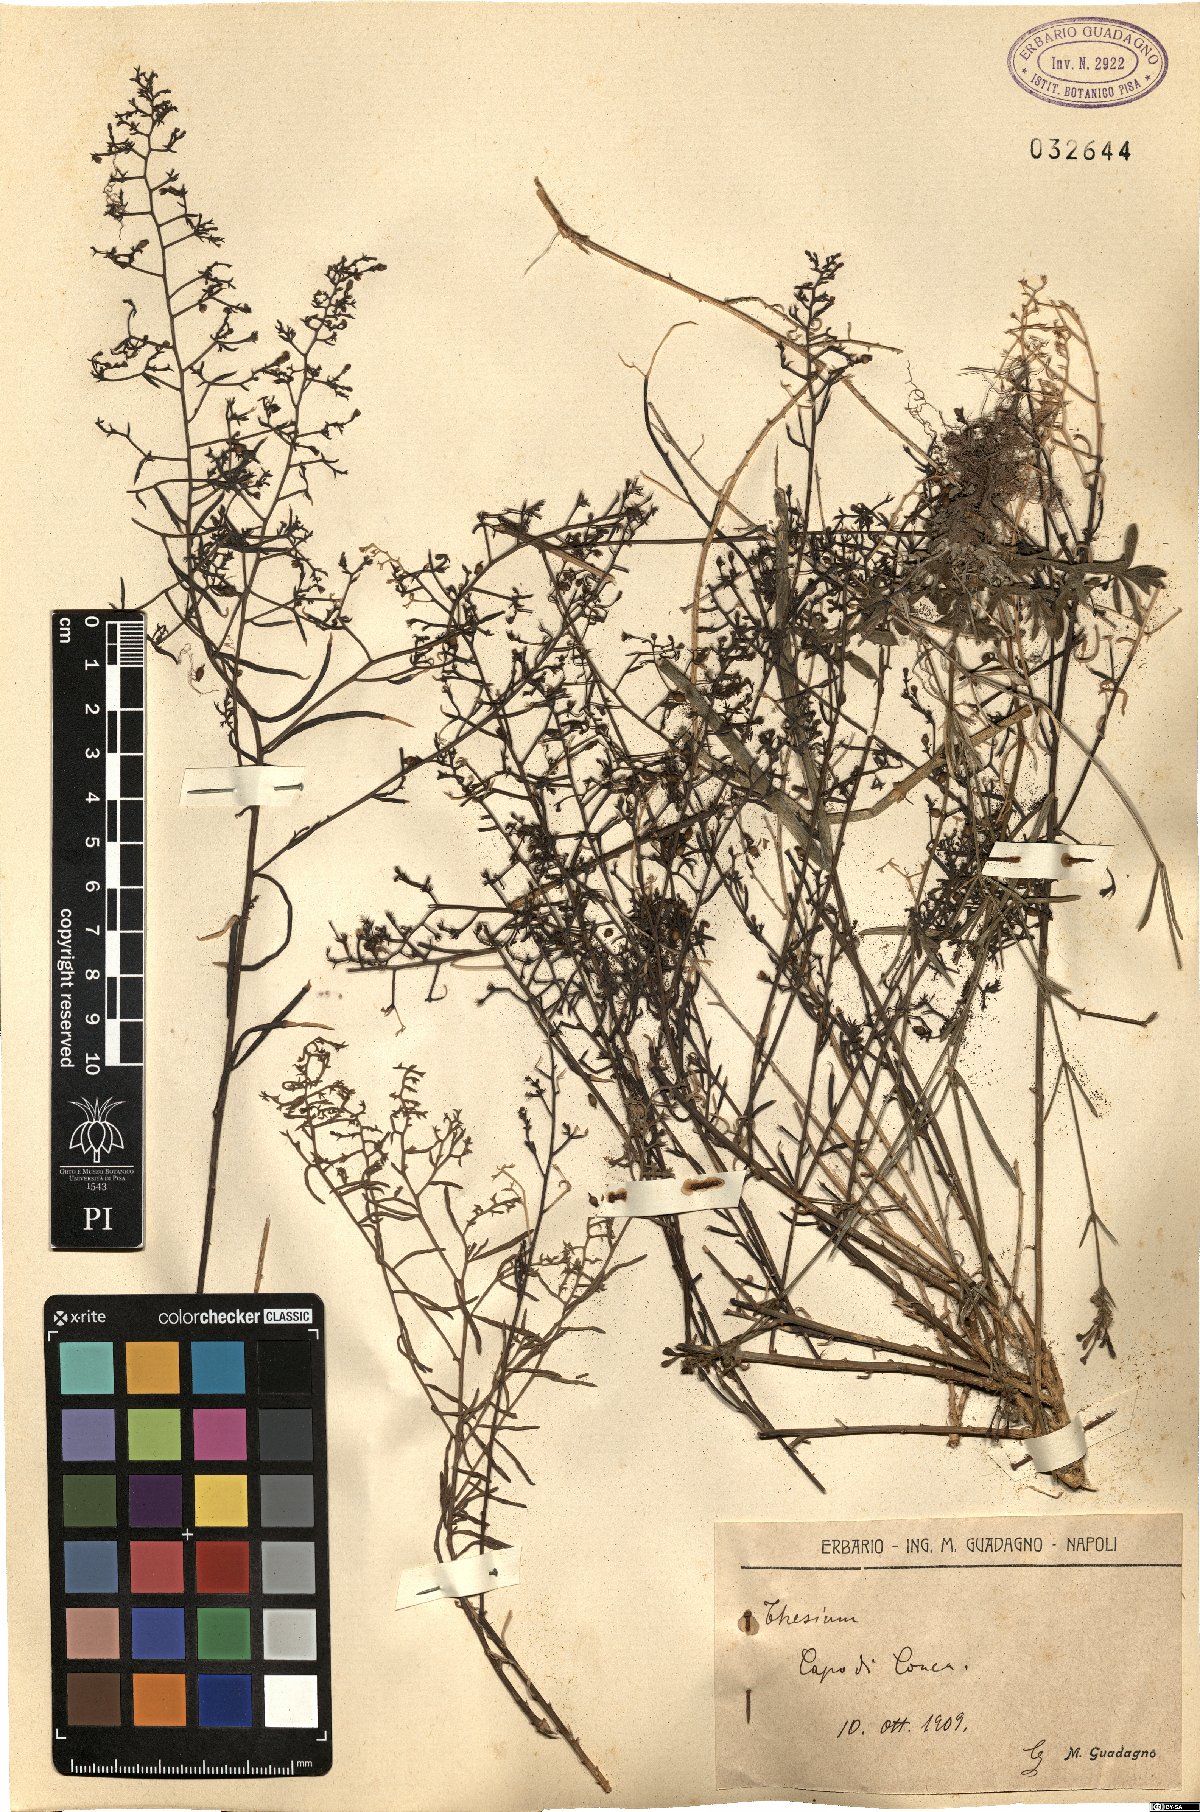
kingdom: Plantae
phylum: Tracheophyta
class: Magnoliopsida
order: Santalales
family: Thesiaceae
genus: Thesium
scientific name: Thesium
